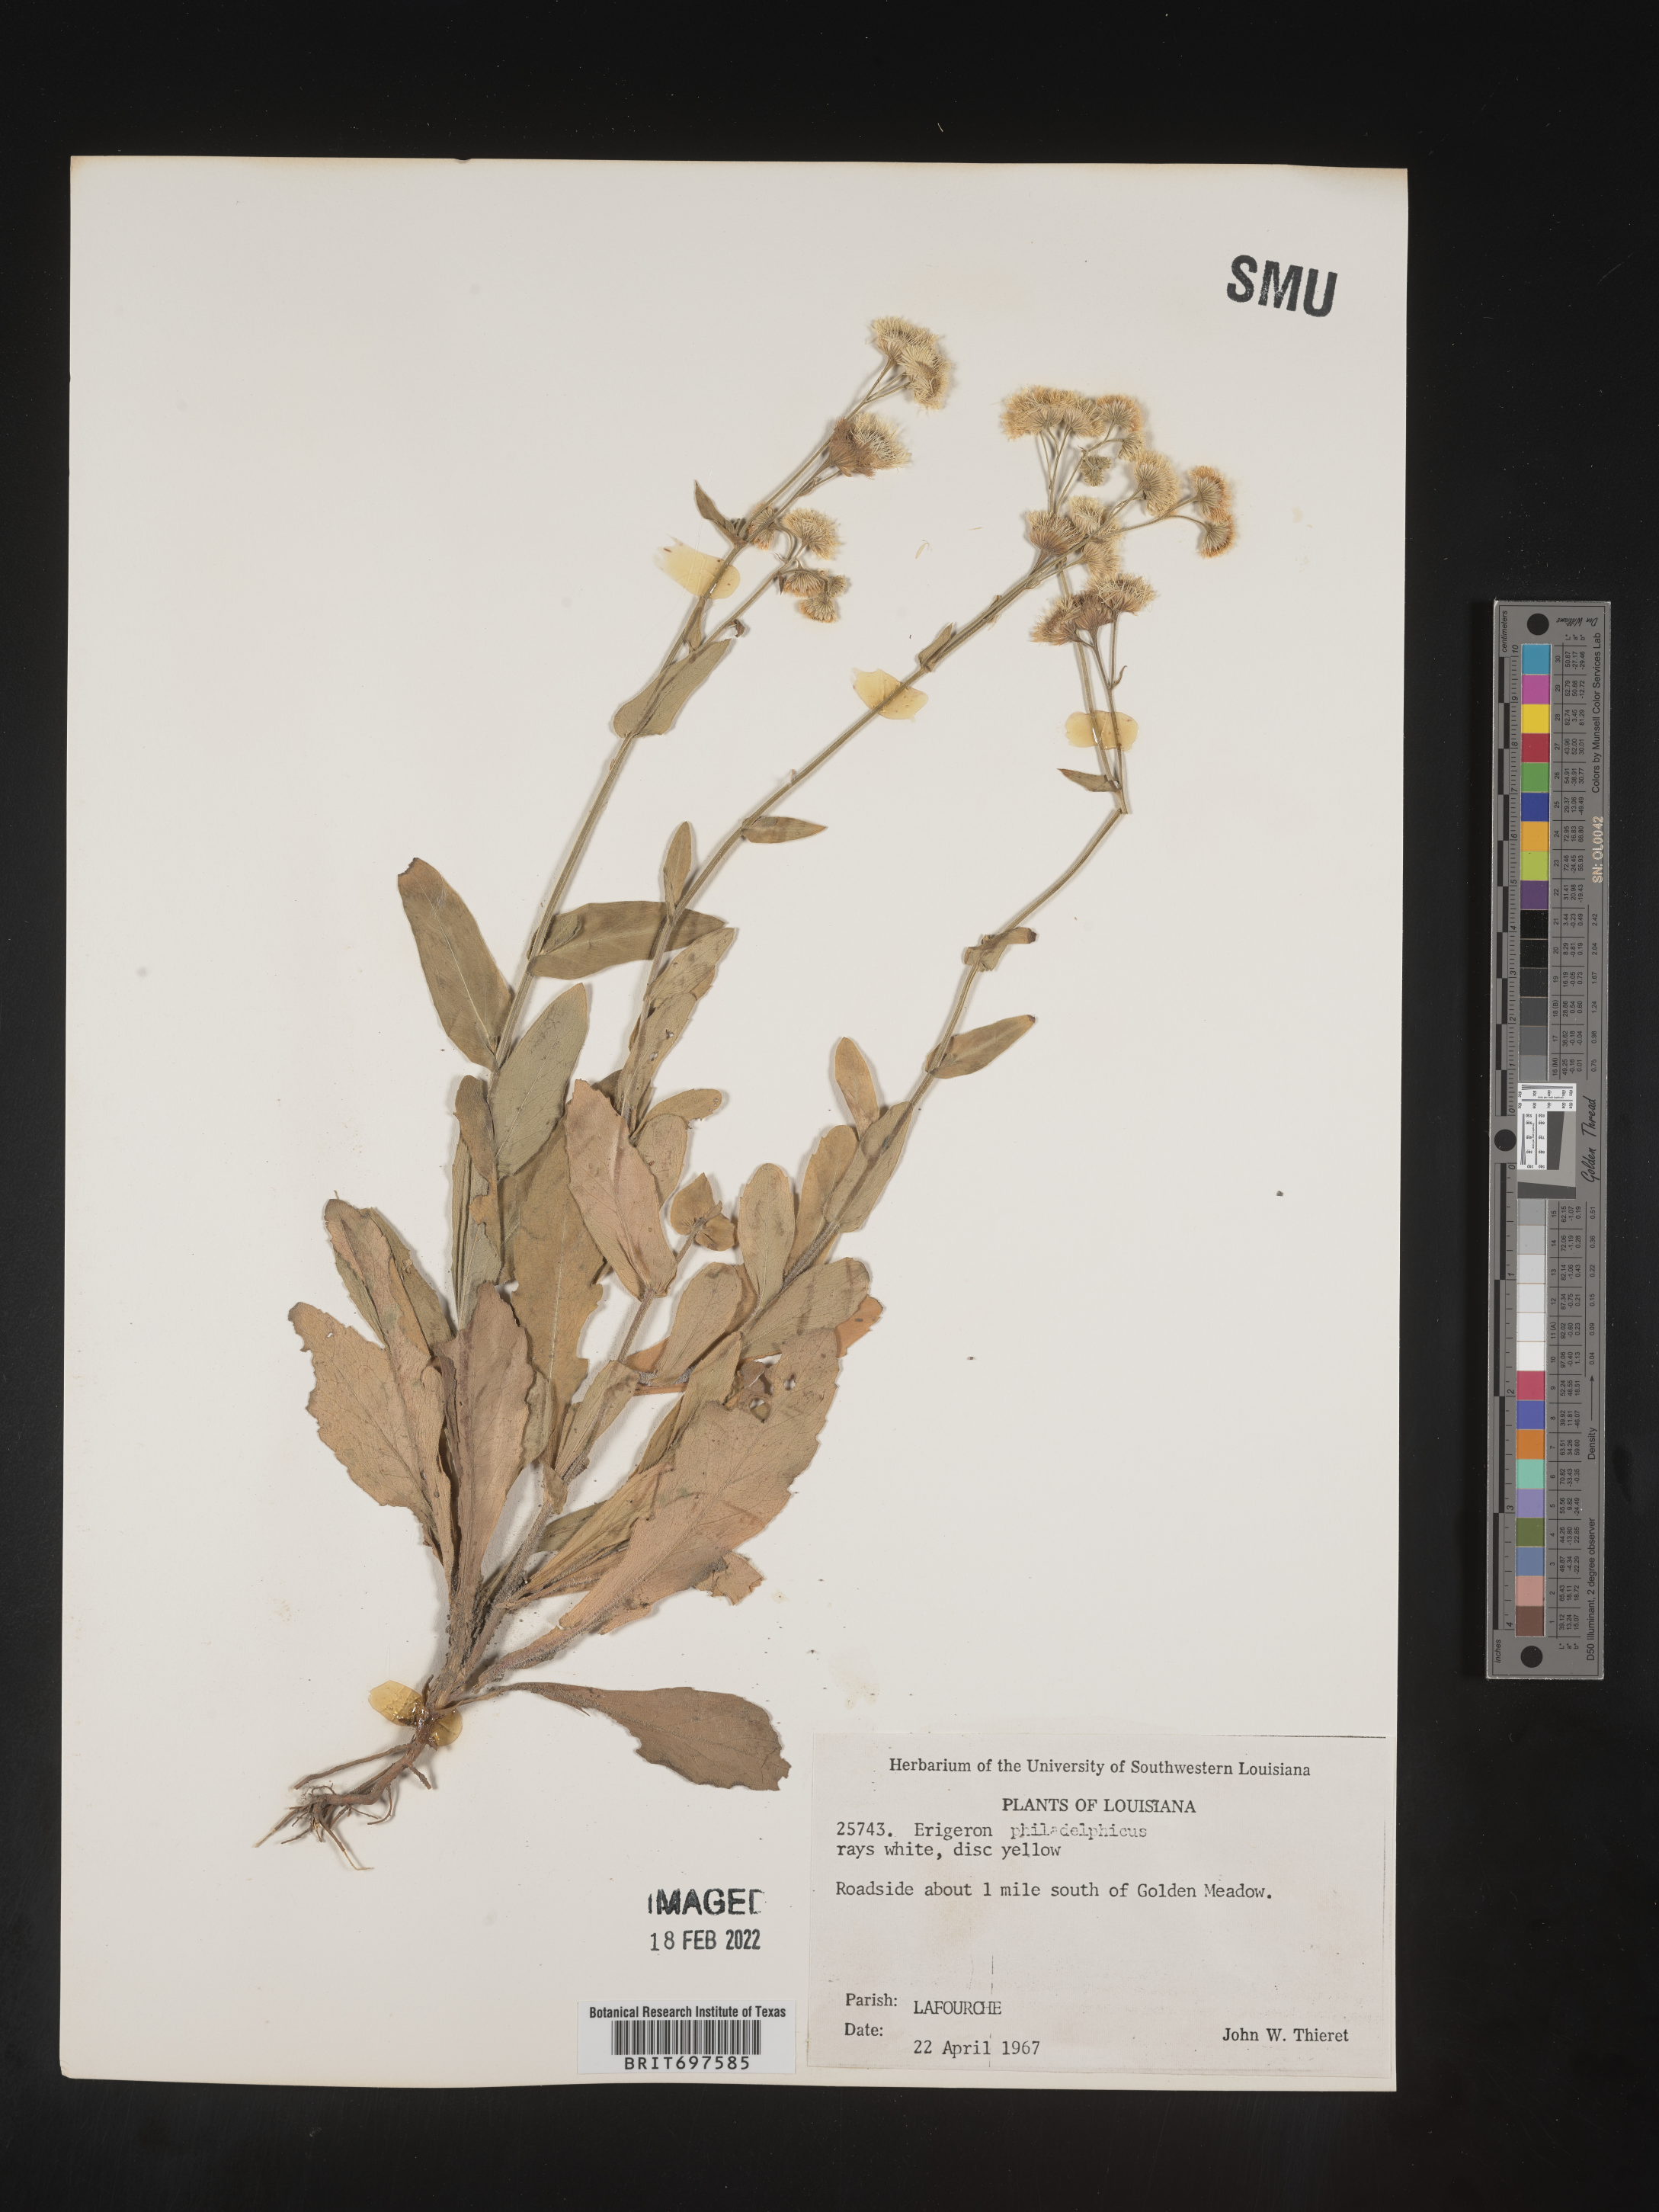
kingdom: Plantae
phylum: Tracheophyta
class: Magnoliopsida
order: Asterales
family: Asteraceae
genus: Erigeron
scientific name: Erigeron philadelphicus
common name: Robin's-plantain
